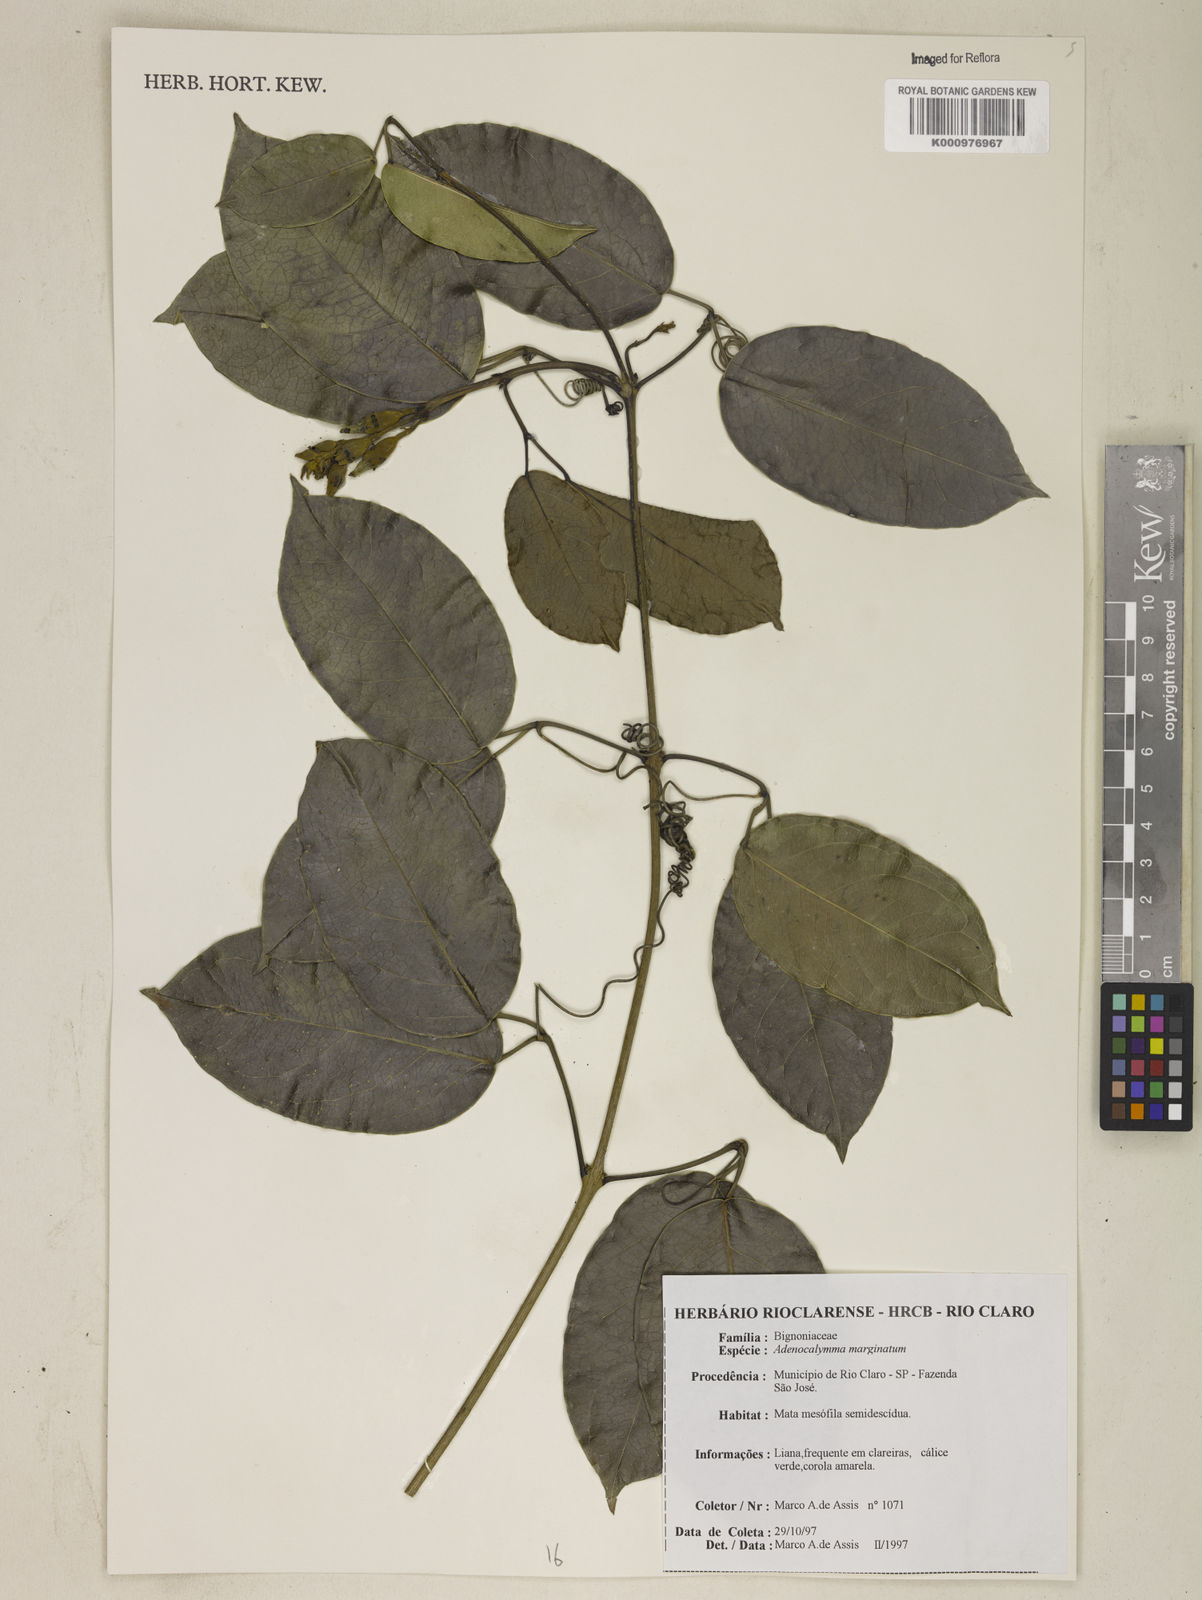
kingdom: Plantae
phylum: Tracheophyta
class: Magnoliopsida
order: Lamiales
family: Bignoniaceae
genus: Adenocalymma
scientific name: Adenocalymma marginatum
